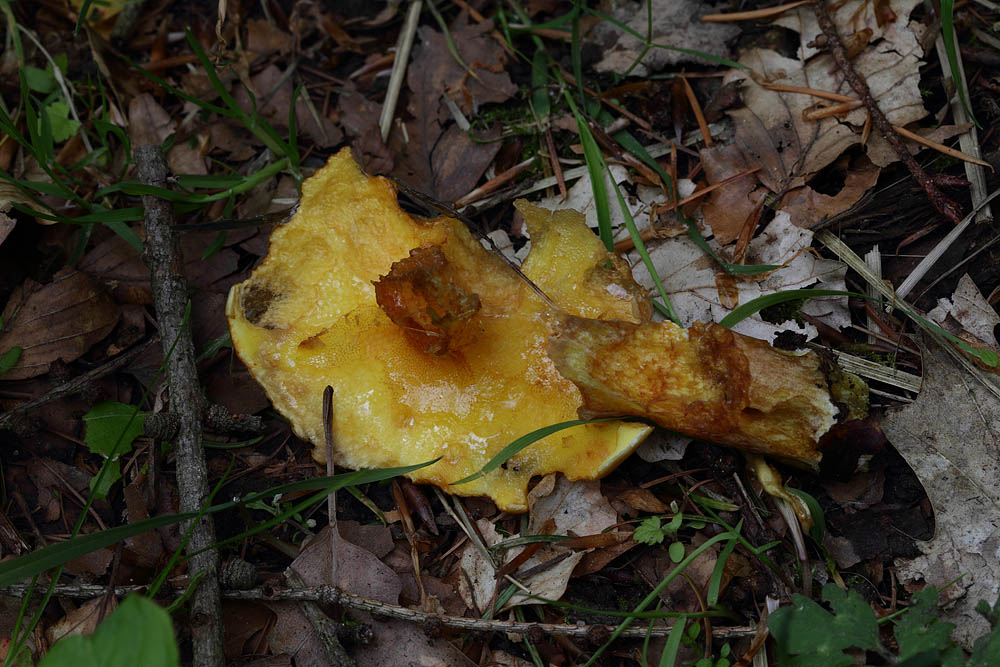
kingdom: Fungi
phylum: Basidiomycota
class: Agaricomycetes
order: Boletales
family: Suillaceae
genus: Suillus
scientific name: Suillus grevillei
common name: lærke-slimrørhat
